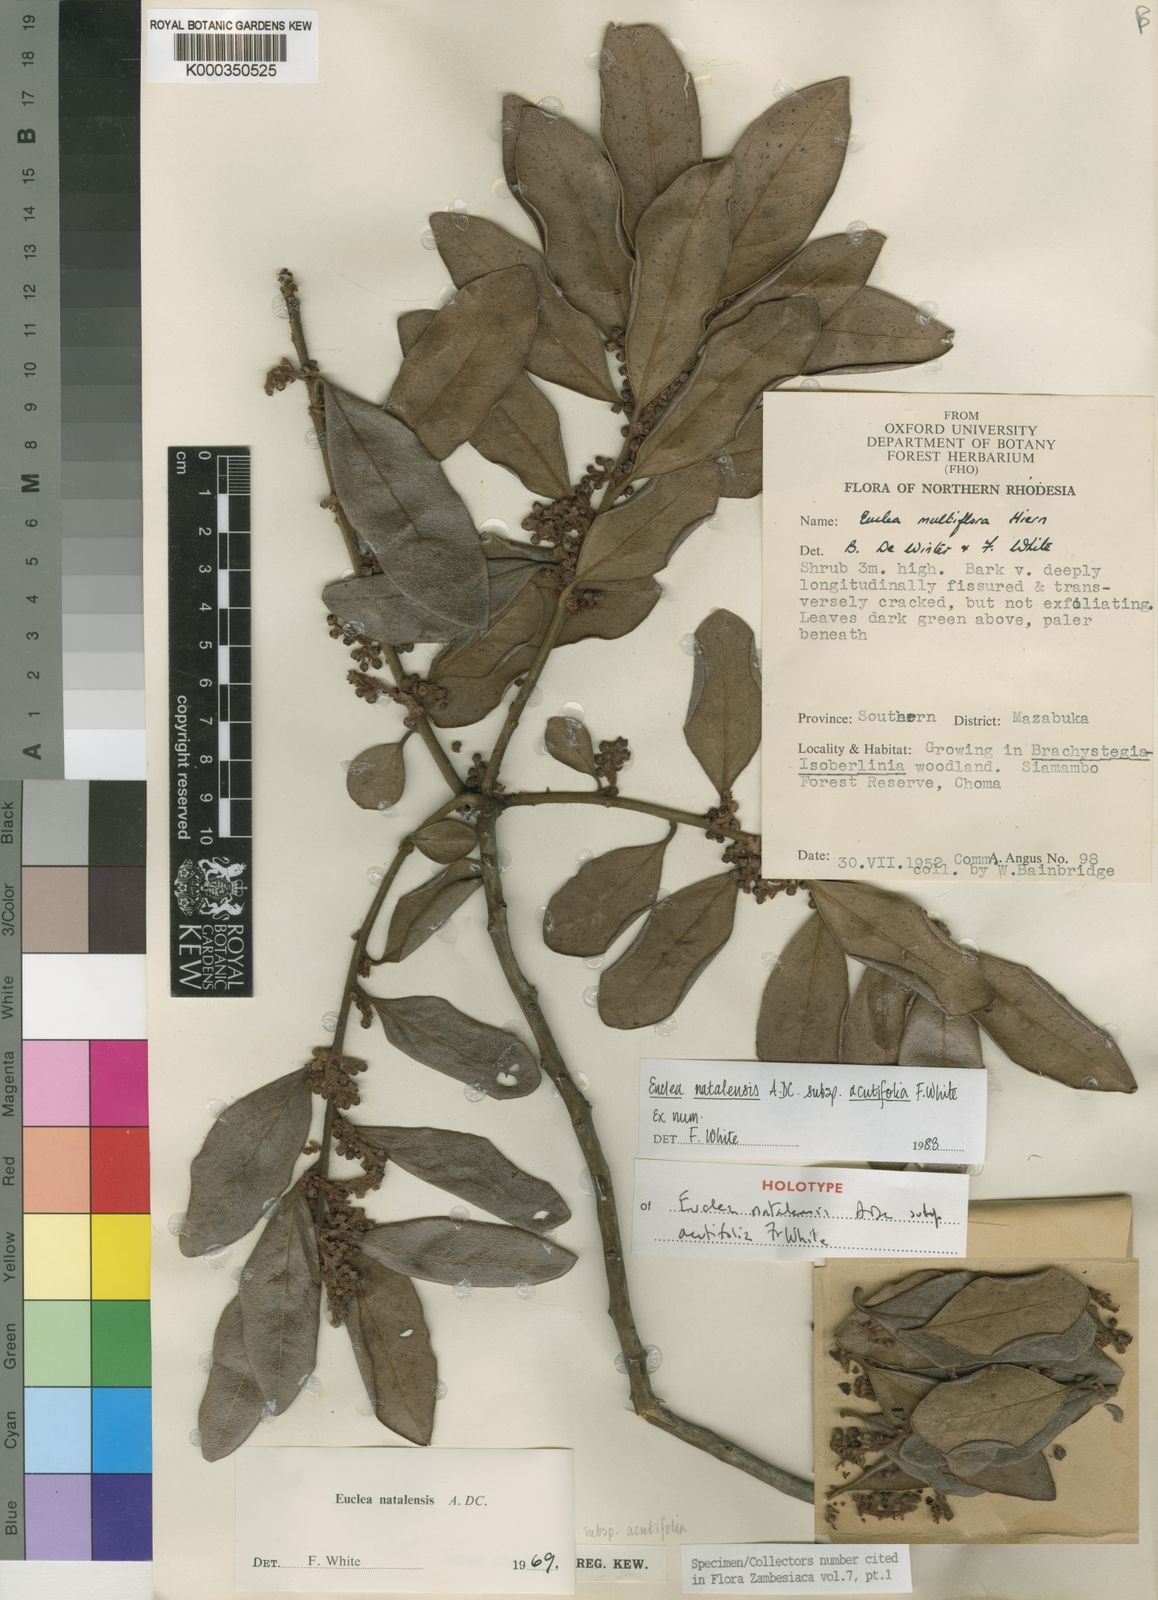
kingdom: Plantae
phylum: Tracheophyta
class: Magnoliopsida
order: Ericales
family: Ebenaceae
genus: Euclea
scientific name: Euclea natalensis
